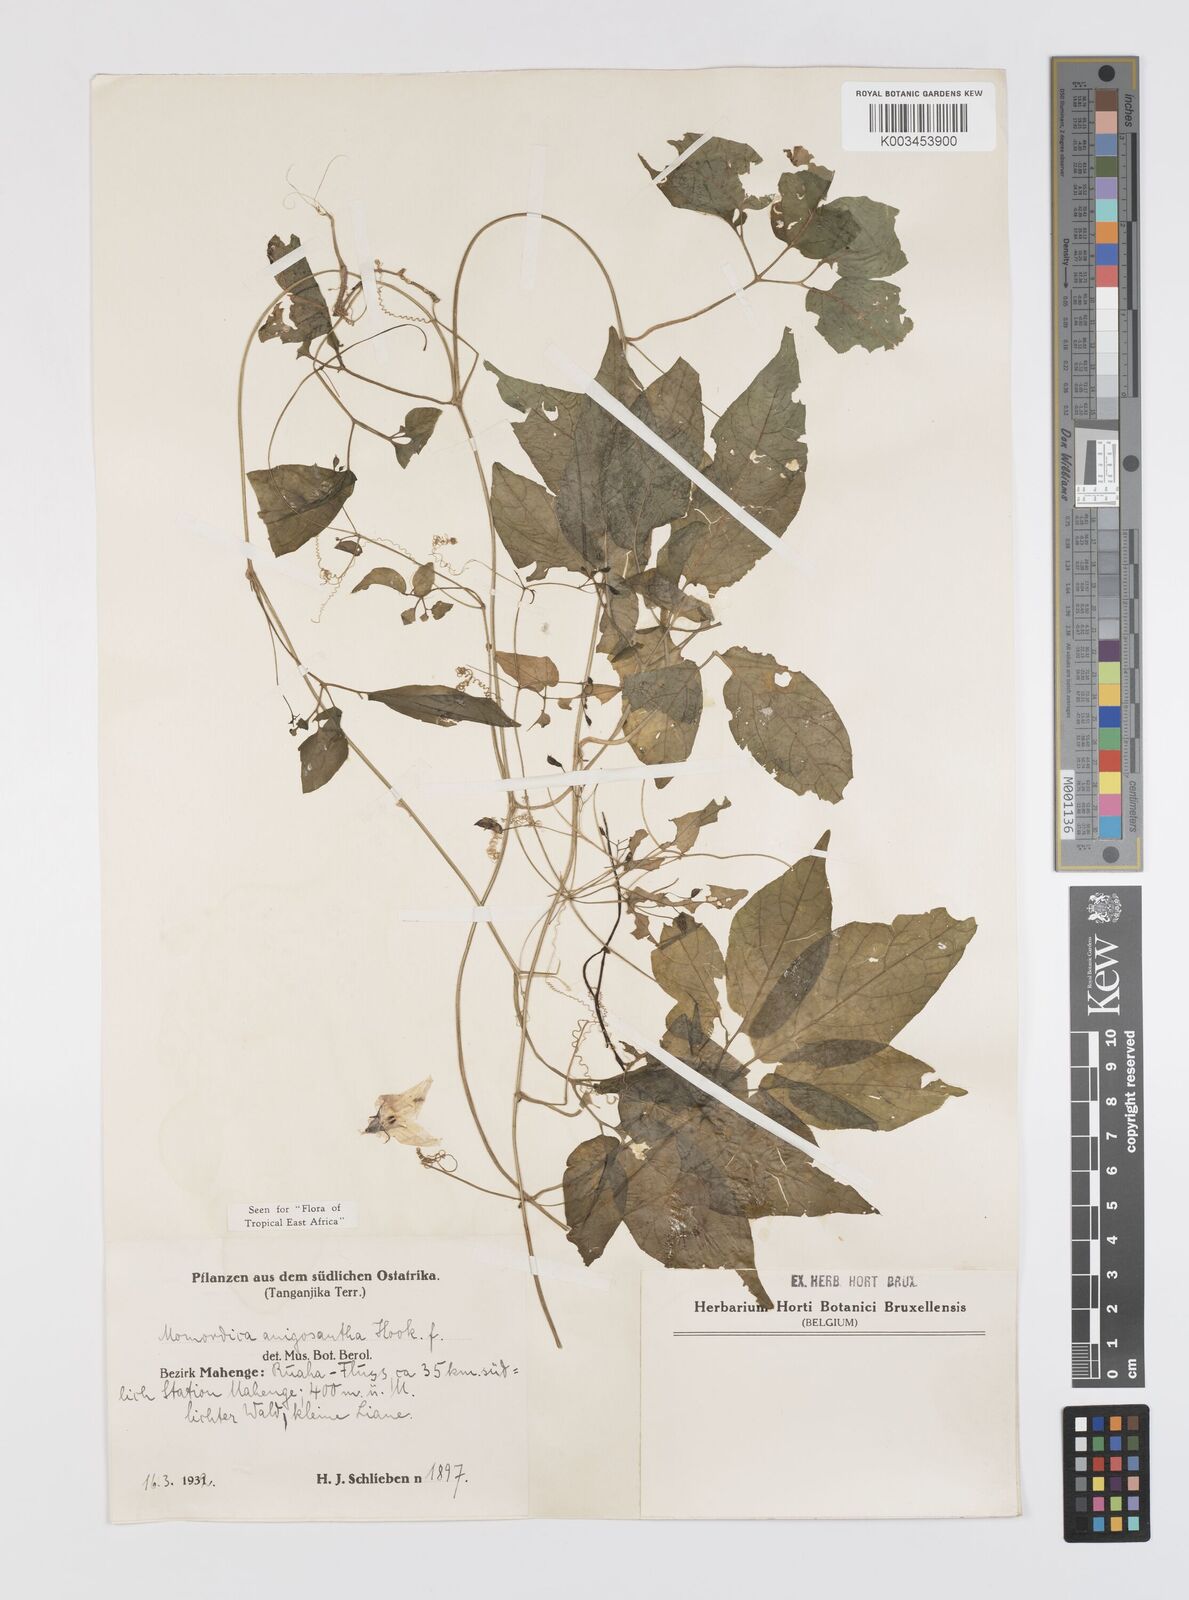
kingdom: Plantae
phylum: Tracheophyta
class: Magnoliopsida
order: Cucurbitales
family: Cucurbitaceae
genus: Momordica
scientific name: Momordica anigosantha
